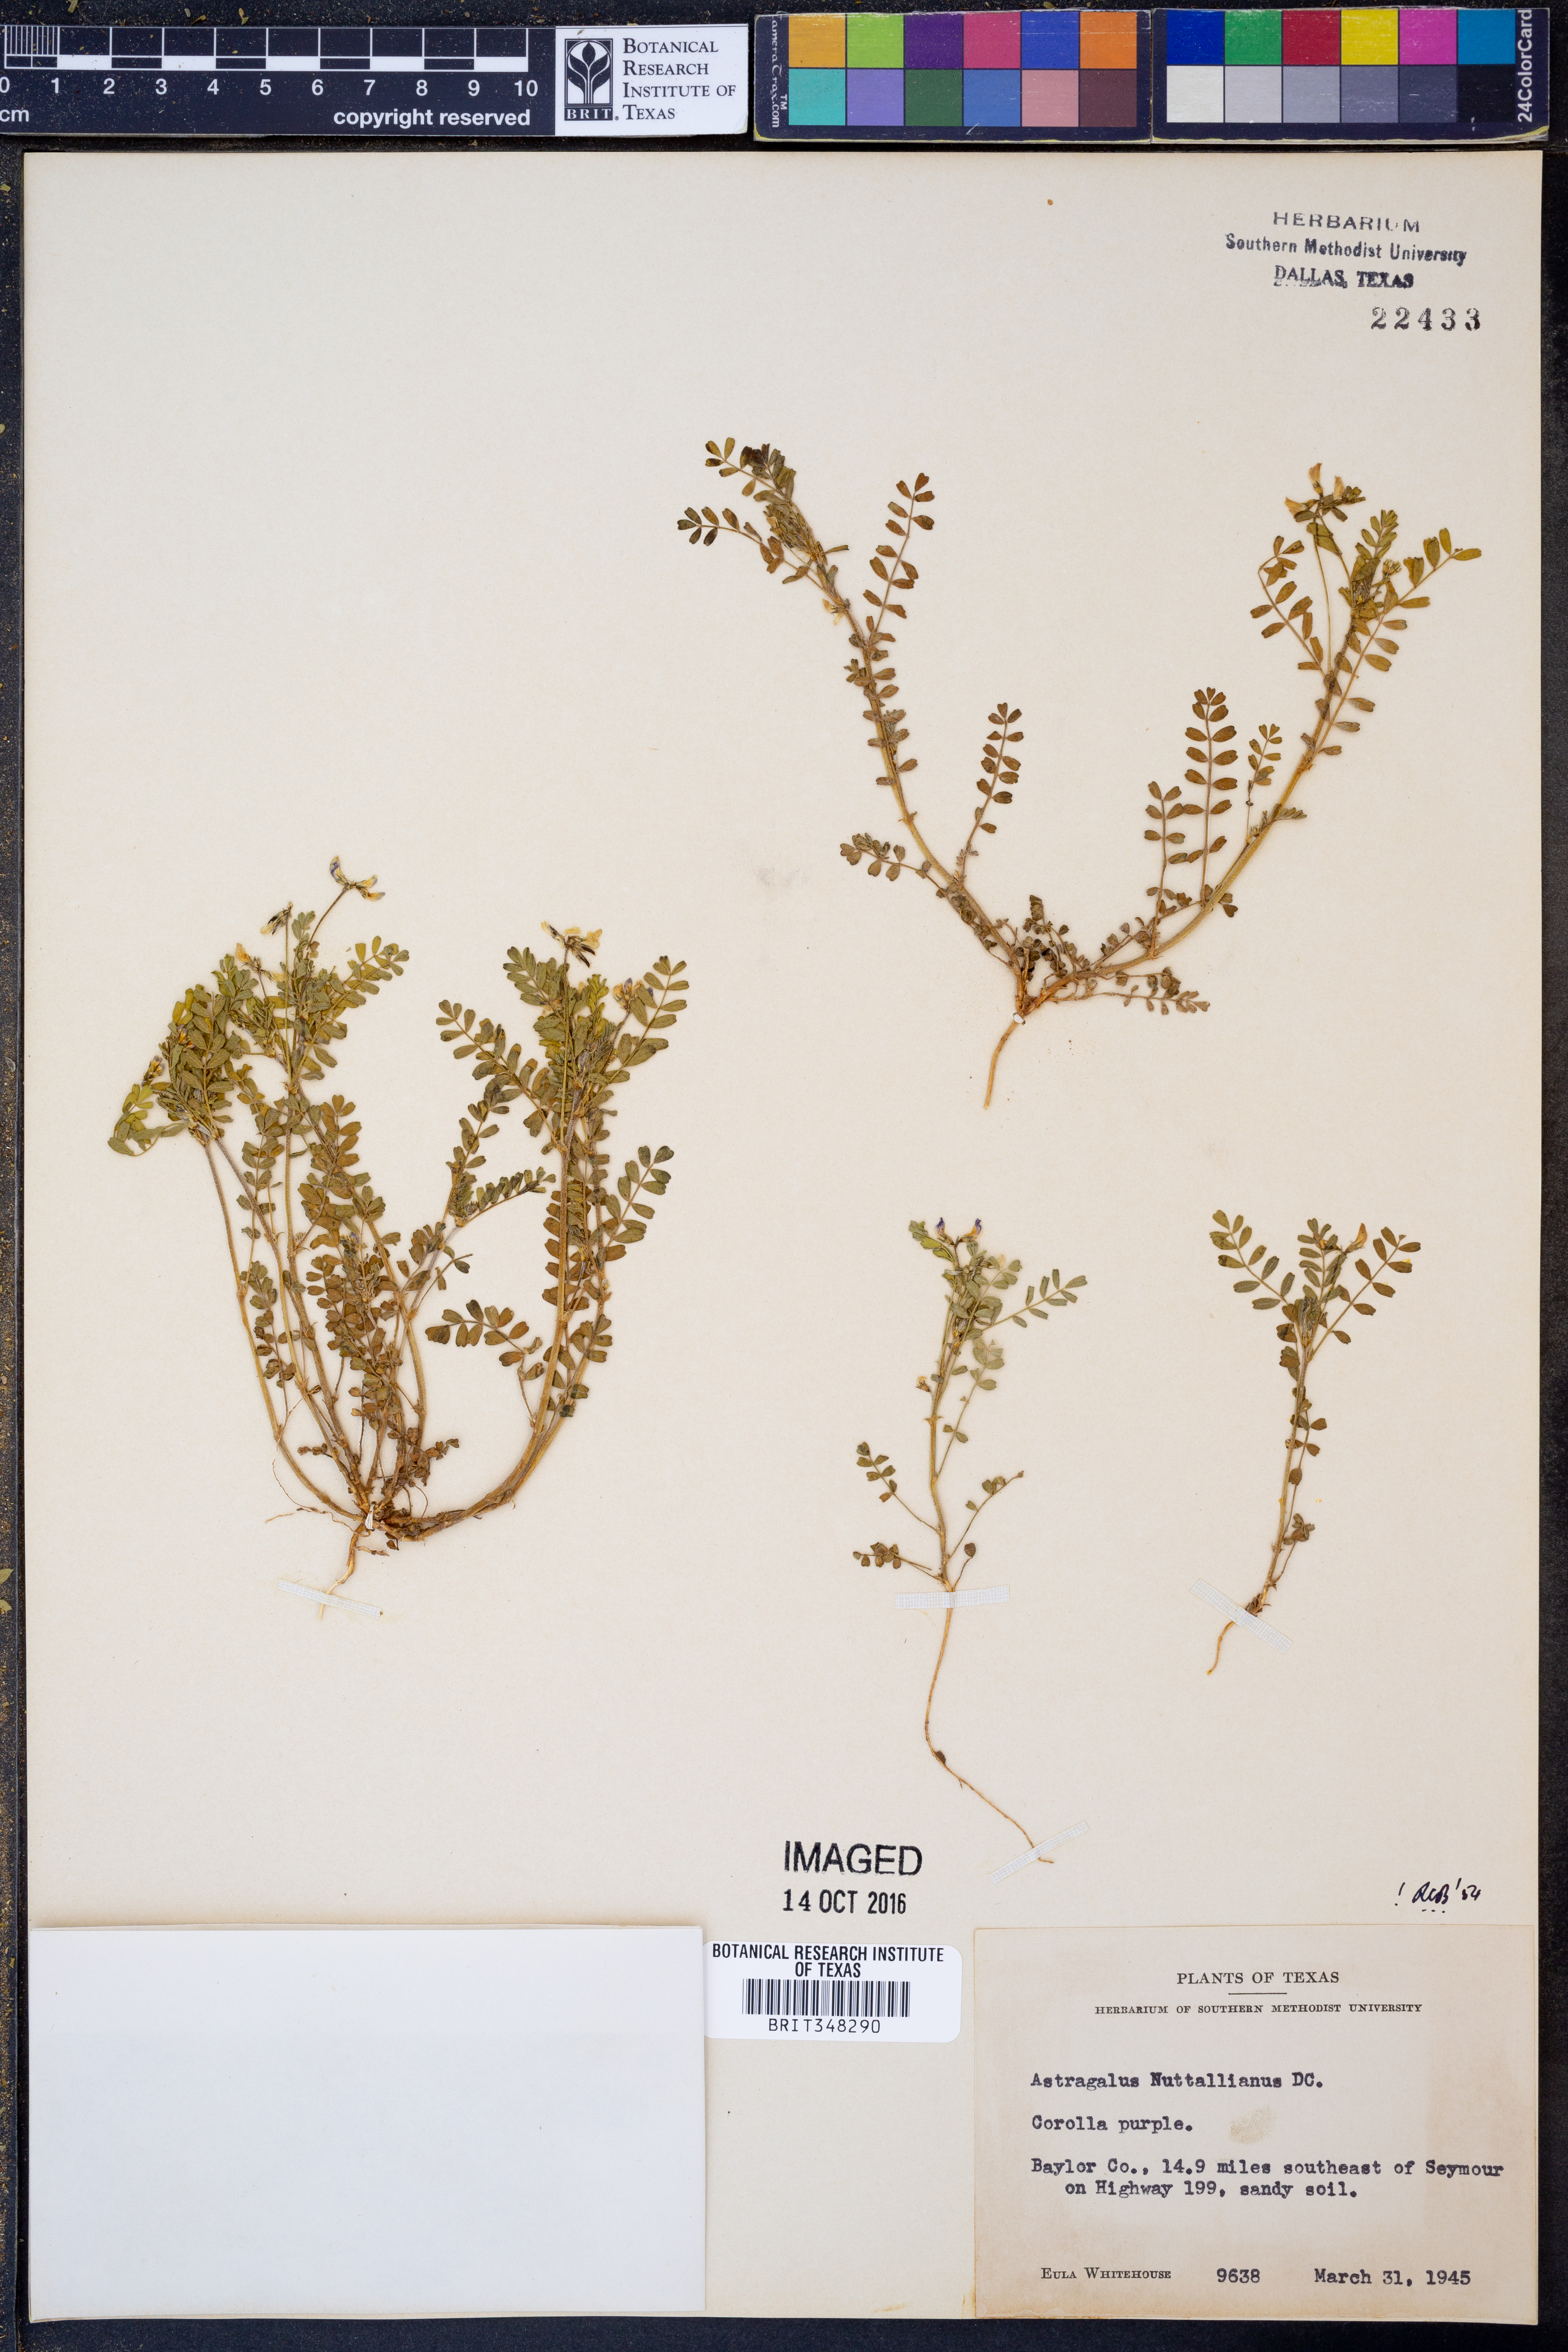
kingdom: Plantae
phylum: Tracheophyta
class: Magnoliopsida
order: Fabales
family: Fabaceae
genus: Astragalus
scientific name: Astragalus nuttallianus
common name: Smallflowered milkvetch
